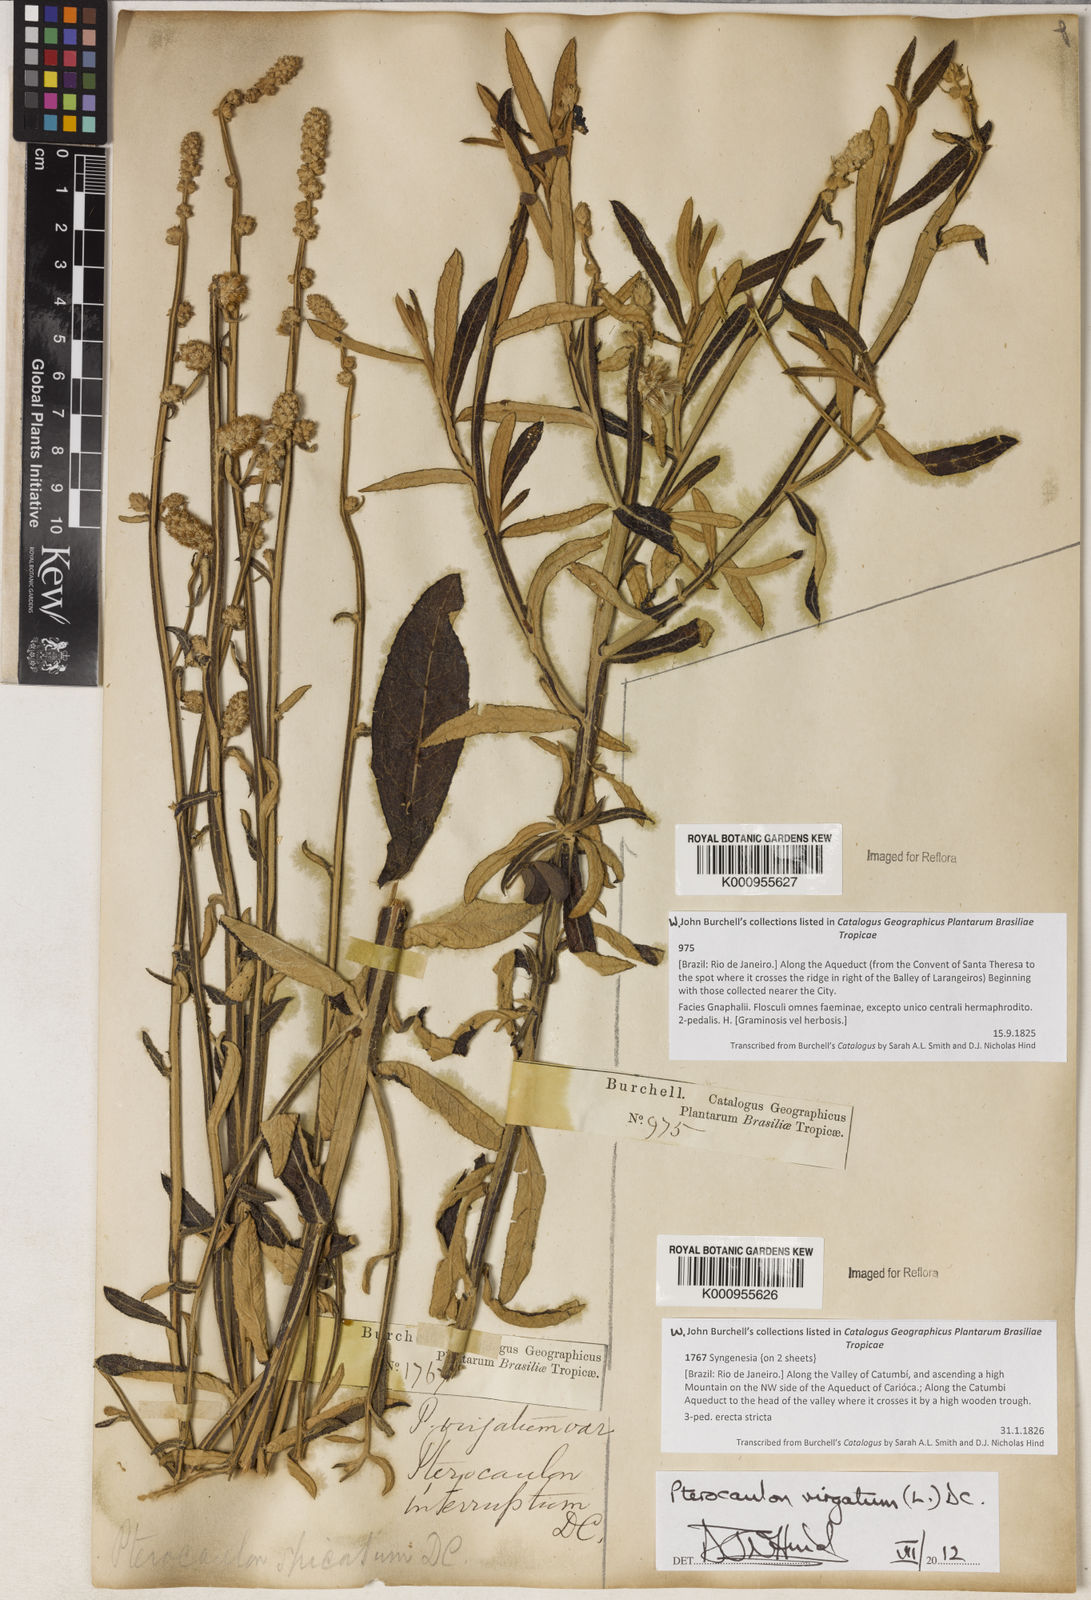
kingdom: Plantae
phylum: Tracheophyta
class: Magnoliopsida
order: Asterales
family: Asteraceae
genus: Pterocaulon
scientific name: Pterocaulon virgatum
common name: Wand blackroot
